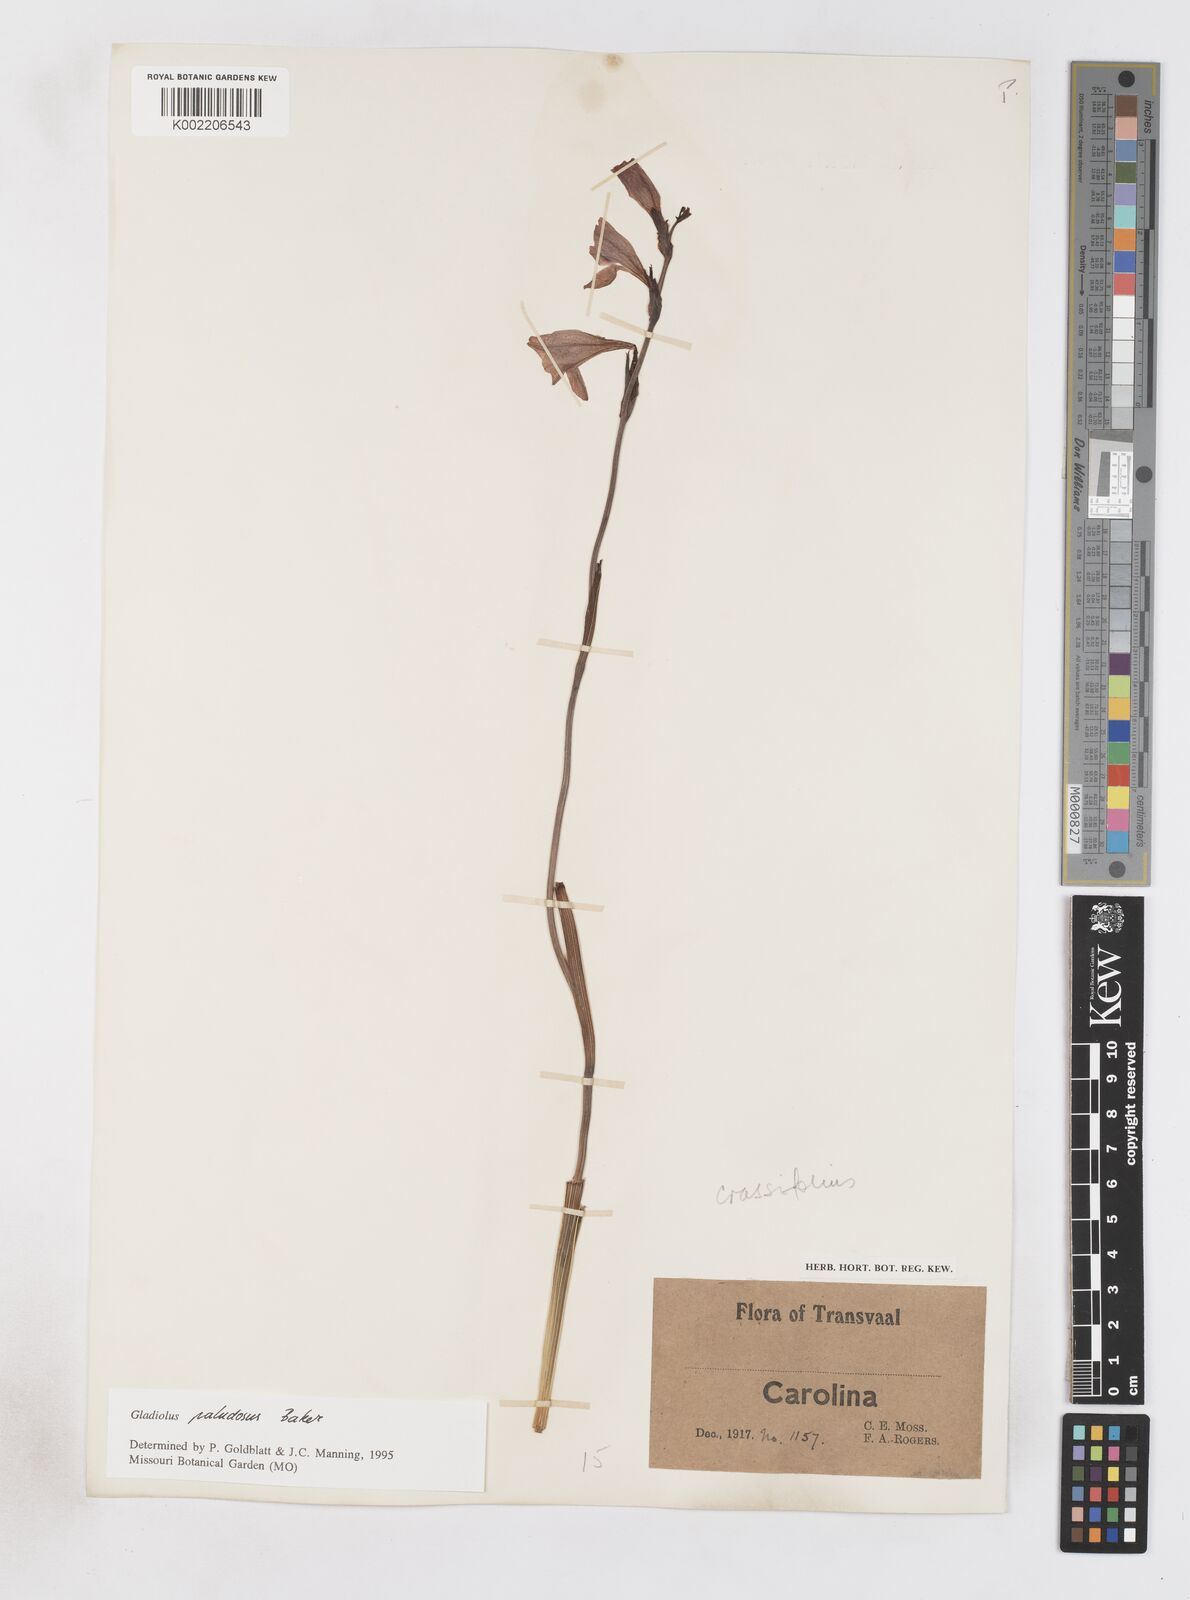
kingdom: Plantae
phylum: Tracheophyta
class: Liliopsida
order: Asparagales
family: Iridaceae
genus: Gladiolus
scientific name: Gladiolus paludosus
